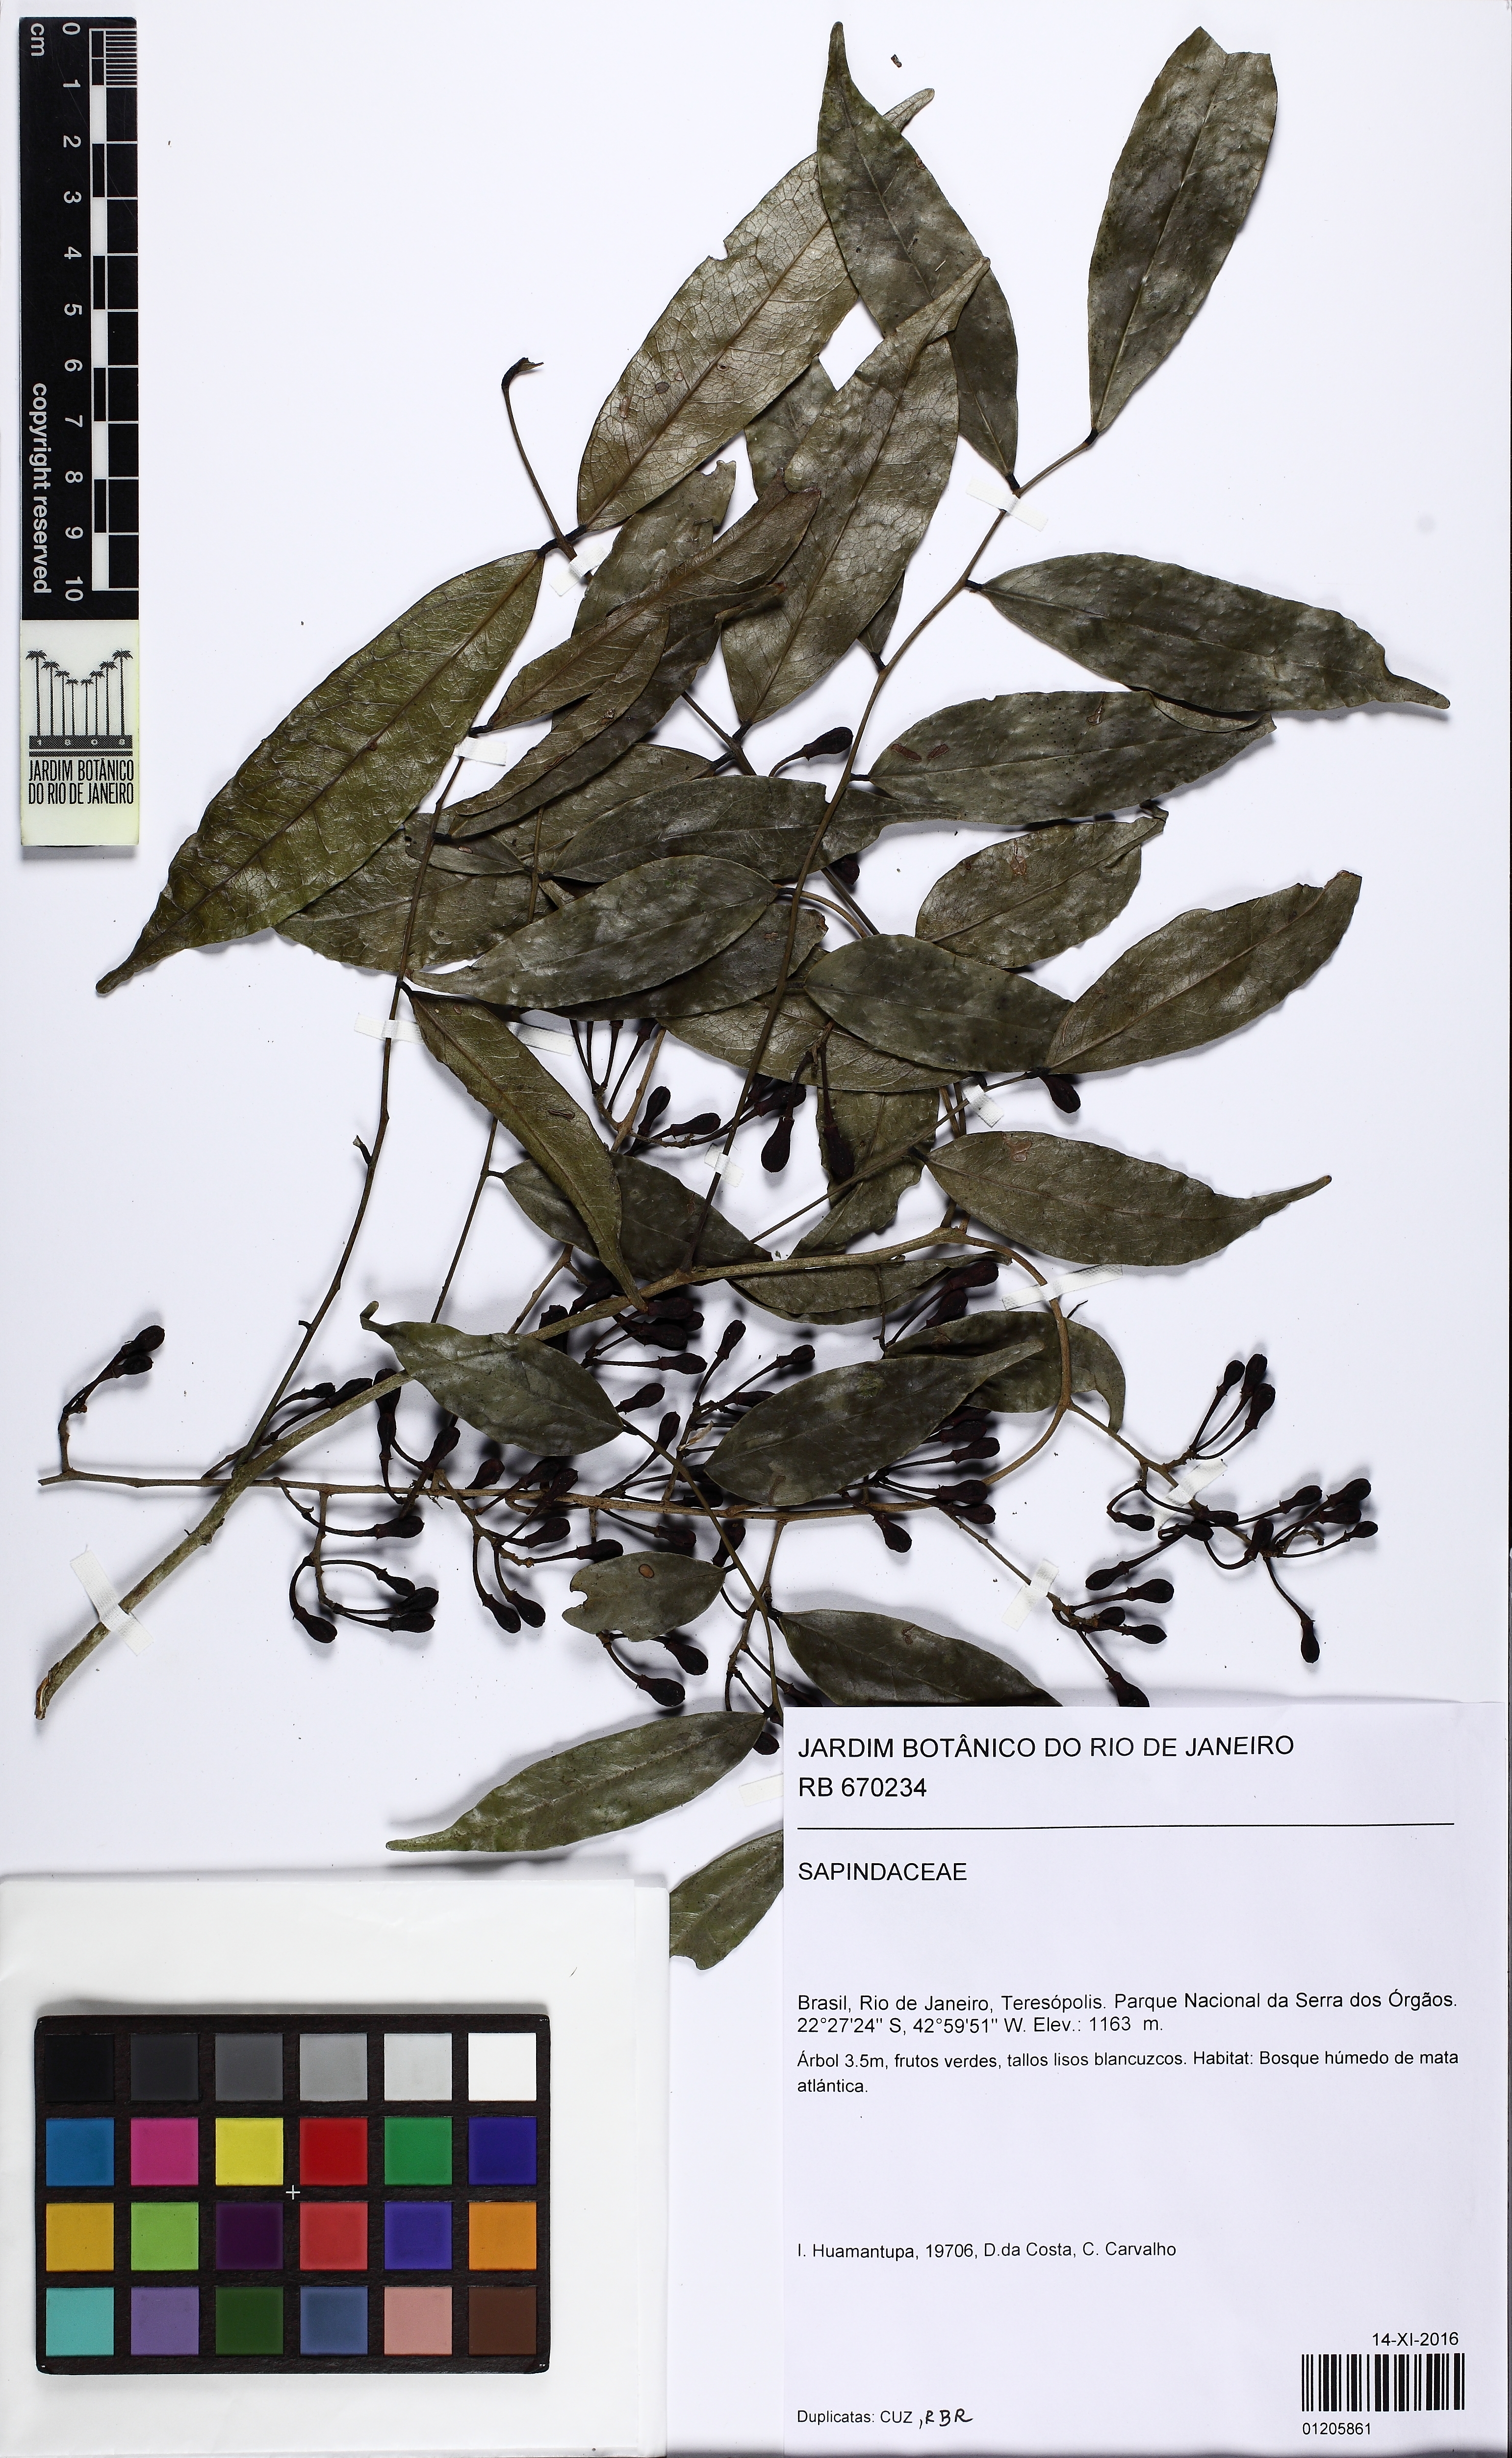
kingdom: Plantae
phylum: Tracheophyta
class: Magnoliopsida
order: Sapindales
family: Sapindaceae
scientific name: Sapindaceae
